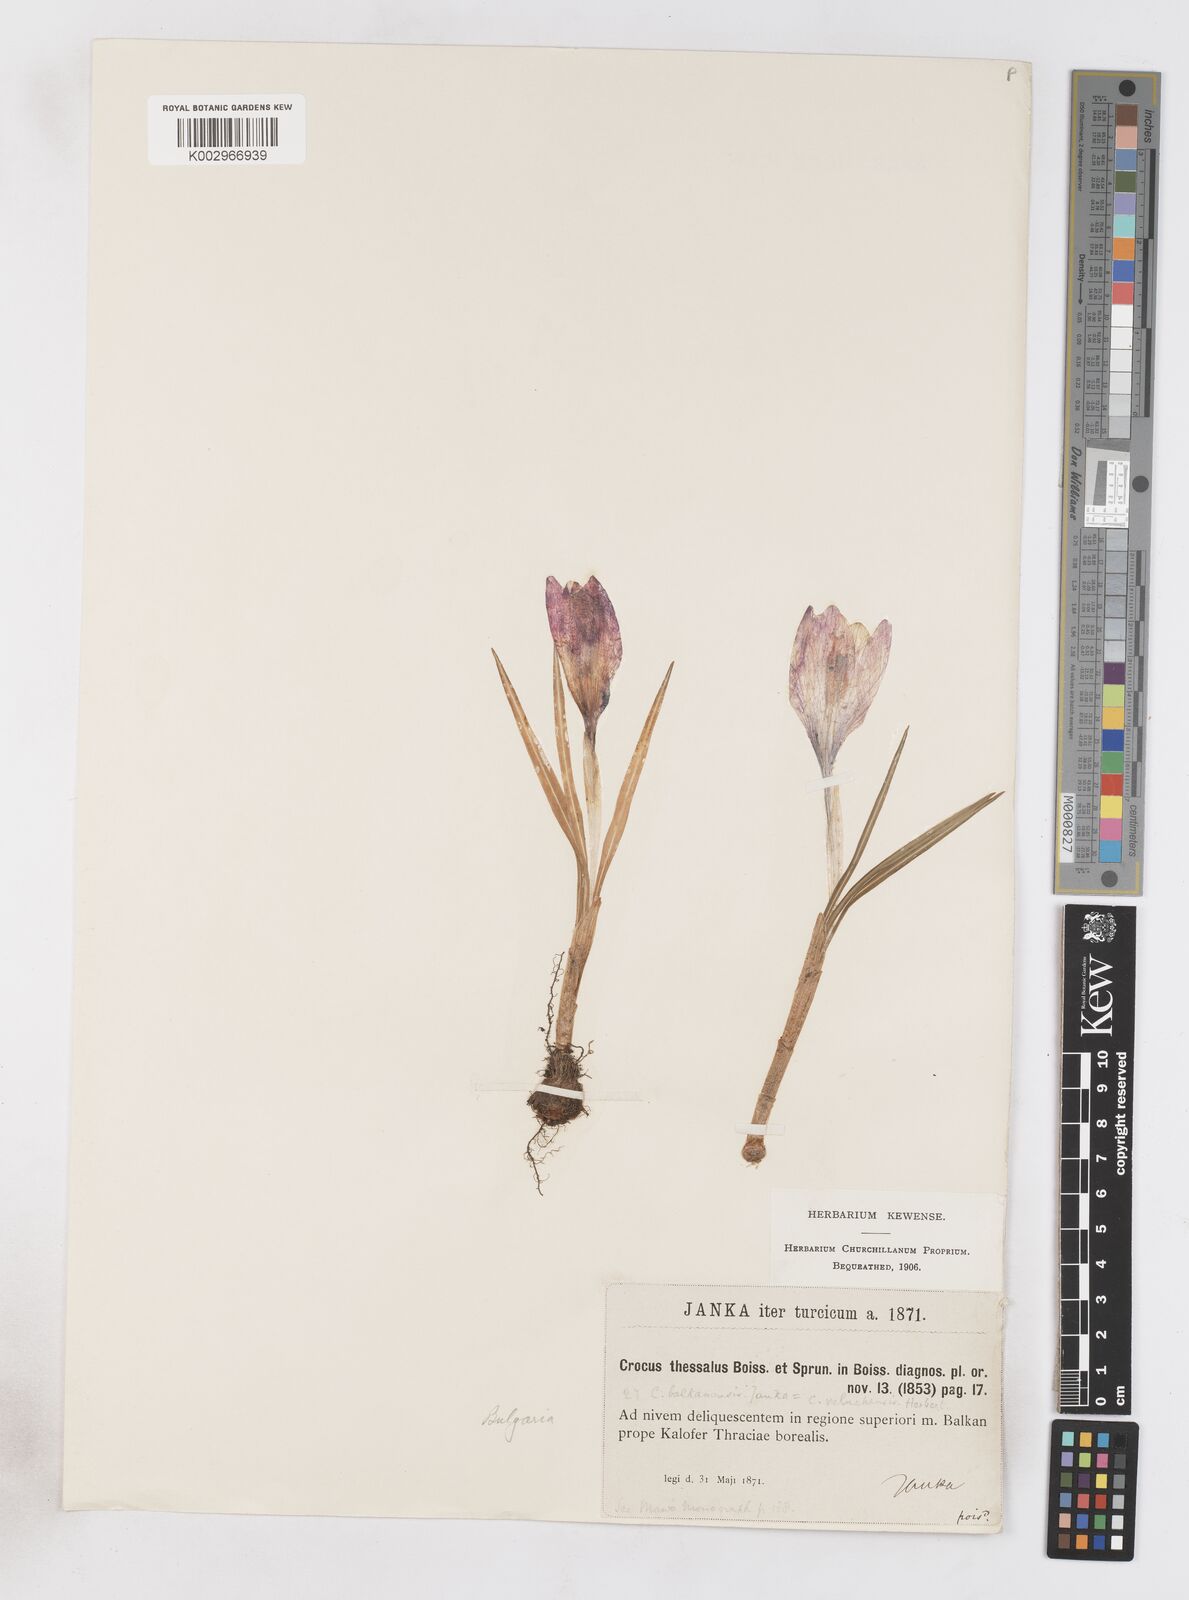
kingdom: Plantae
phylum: Tracheophyta
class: Liliopsida
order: Asparagales
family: Iridaceae
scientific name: Iridaceae
